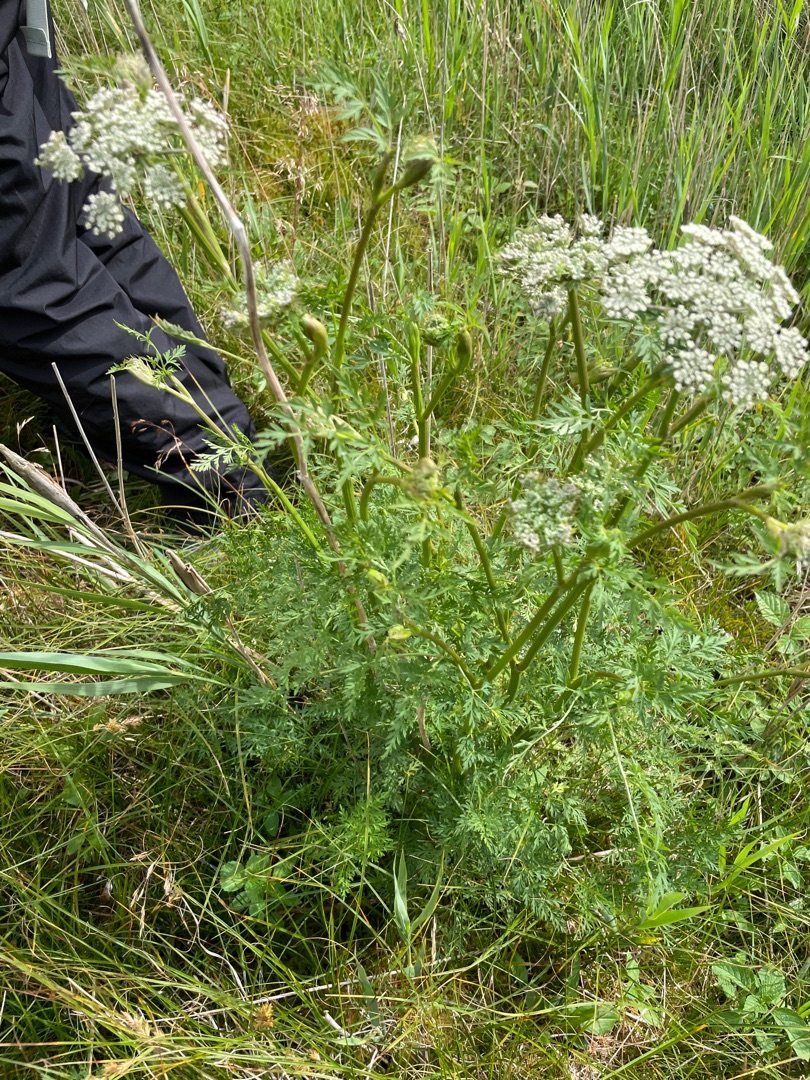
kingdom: Plantae
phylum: Tracheophyta
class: Magnoliopsida
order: Apiales
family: Apiaceae
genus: Thysselinum
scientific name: Thysselinum palustre
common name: Kær-svovlrod
